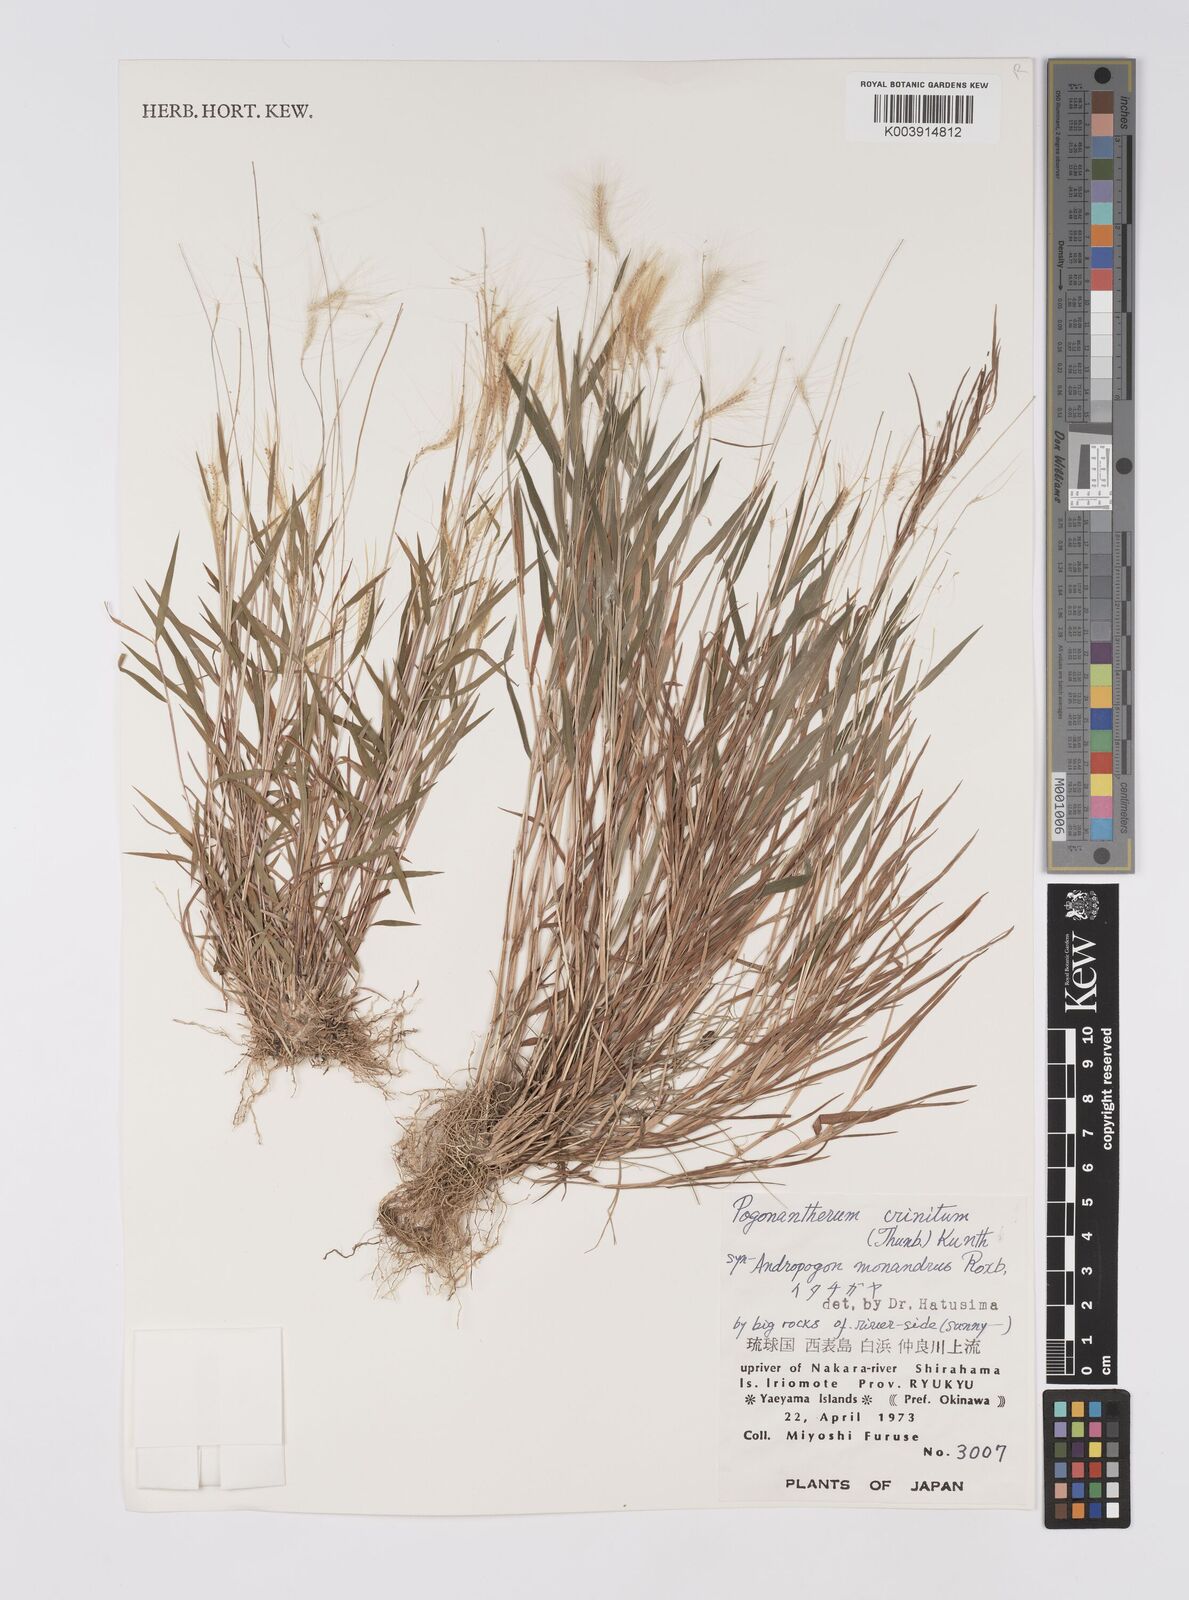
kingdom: Plantae
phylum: Tracheophyta
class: Liliopsida
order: Poales
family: Poaceae
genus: Pogonatherum
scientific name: Pogonatherum crinitum
